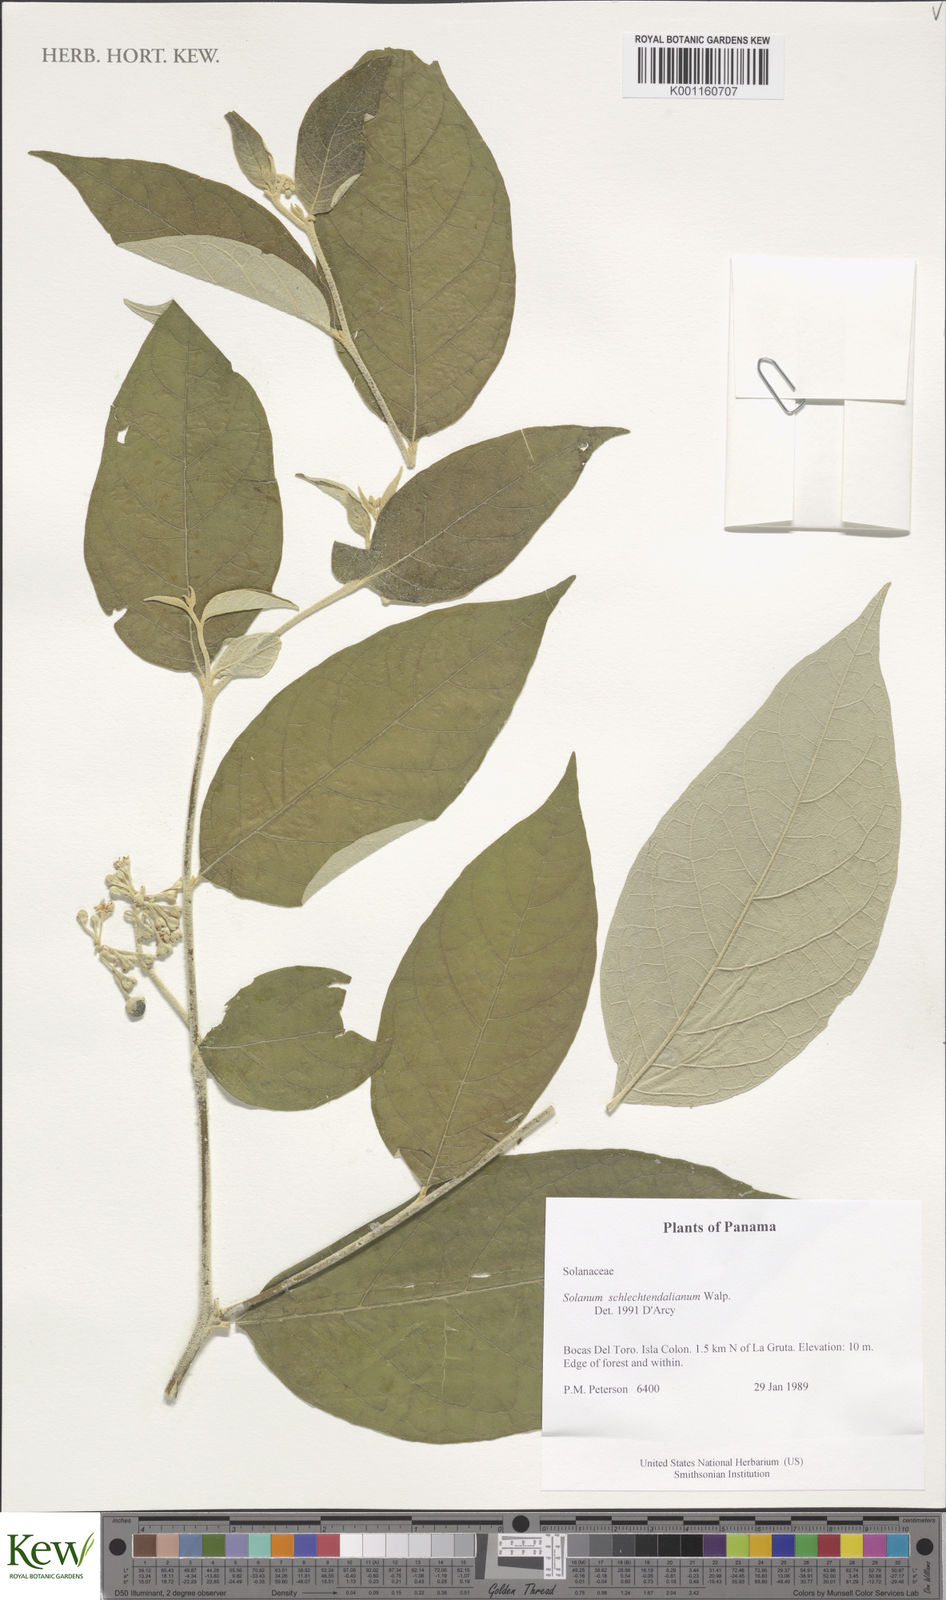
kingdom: Plantae
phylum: Tracheophyta
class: Magnoliopsida
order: Solanales
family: Solanaceae
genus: Solanum
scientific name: Solanum schlechtendalianum
